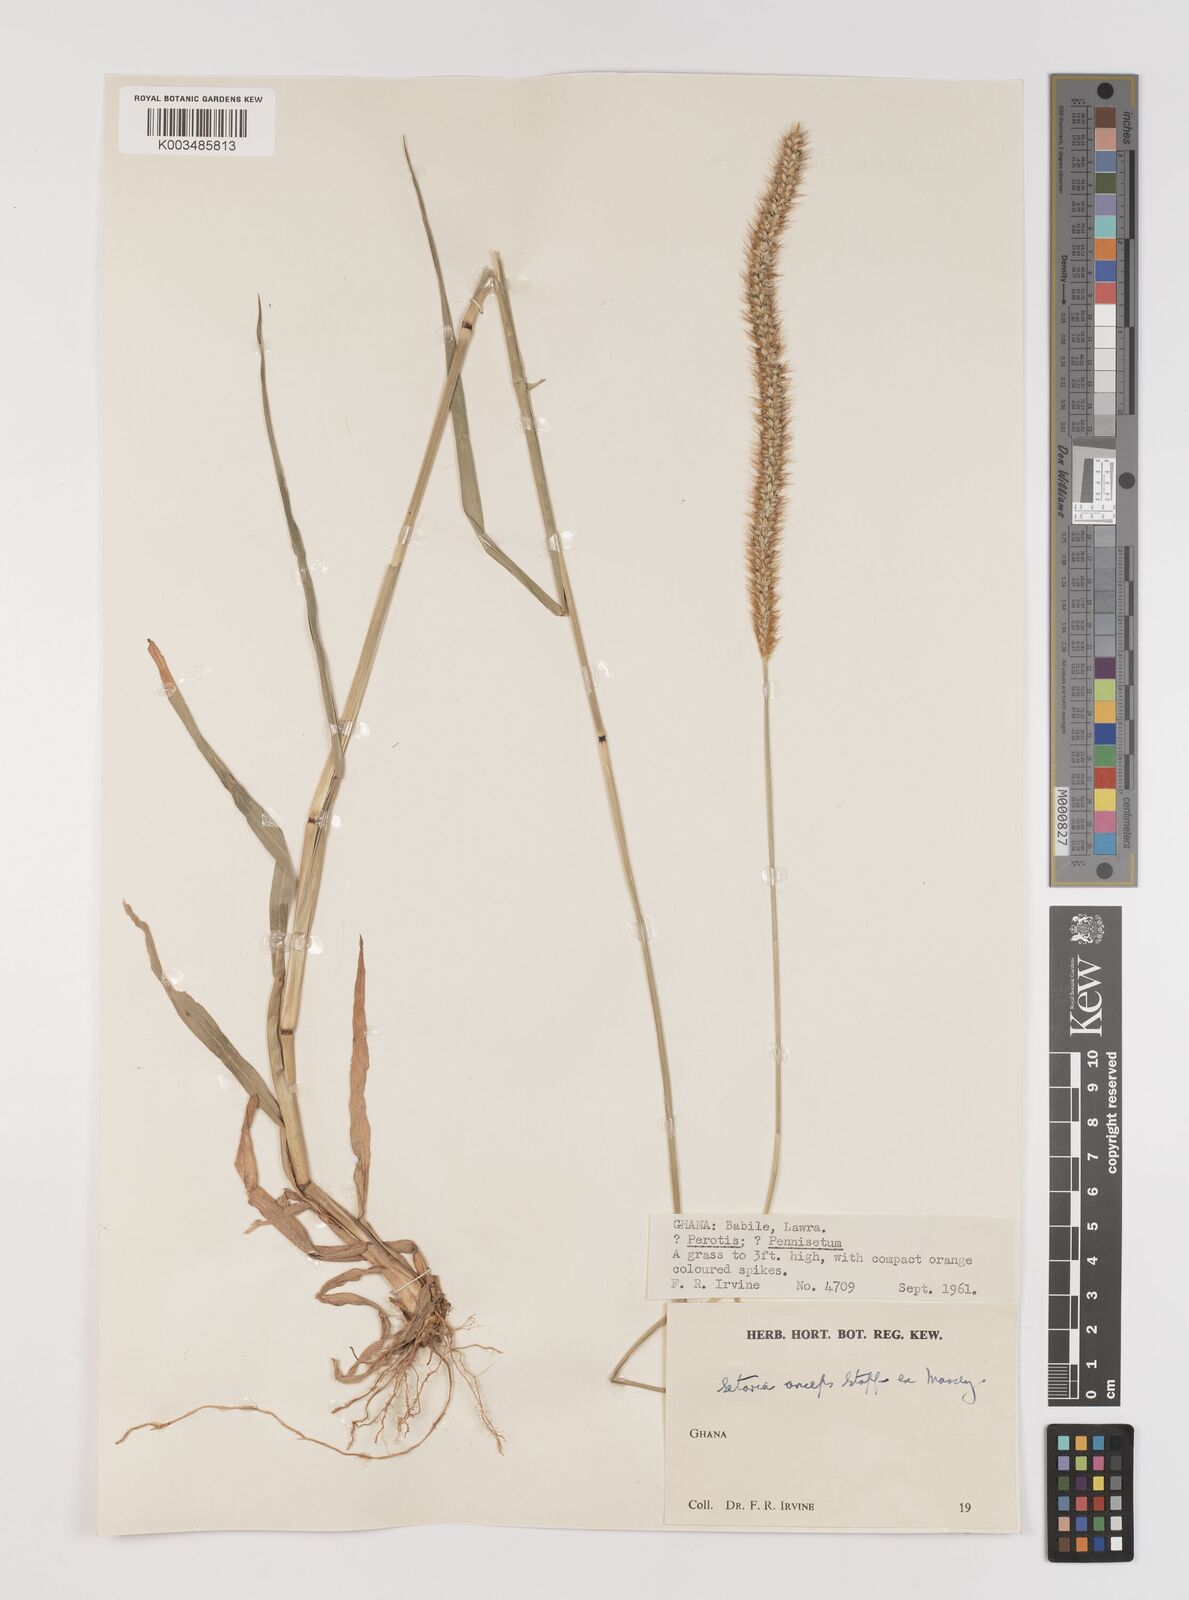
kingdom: Plantae
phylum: Tracheophyta
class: Liliopsida
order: Poales
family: Poaceae
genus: Setaria
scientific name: Setaria sphacelata
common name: African bristlegrass
